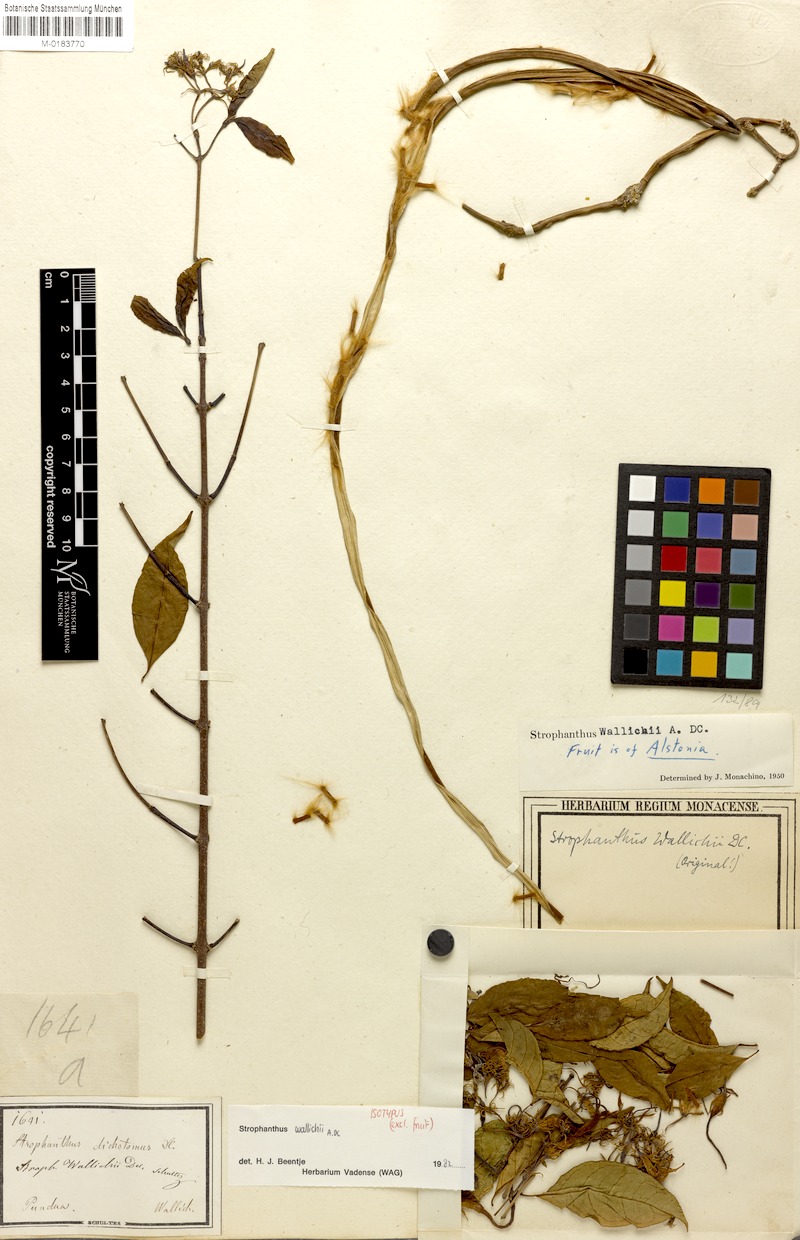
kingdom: Plantae
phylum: Tracheophyta
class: Magnoliopsida
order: Gentianales
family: Apocynaceae
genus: Strophanthus
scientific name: Strophanthus wallichii
